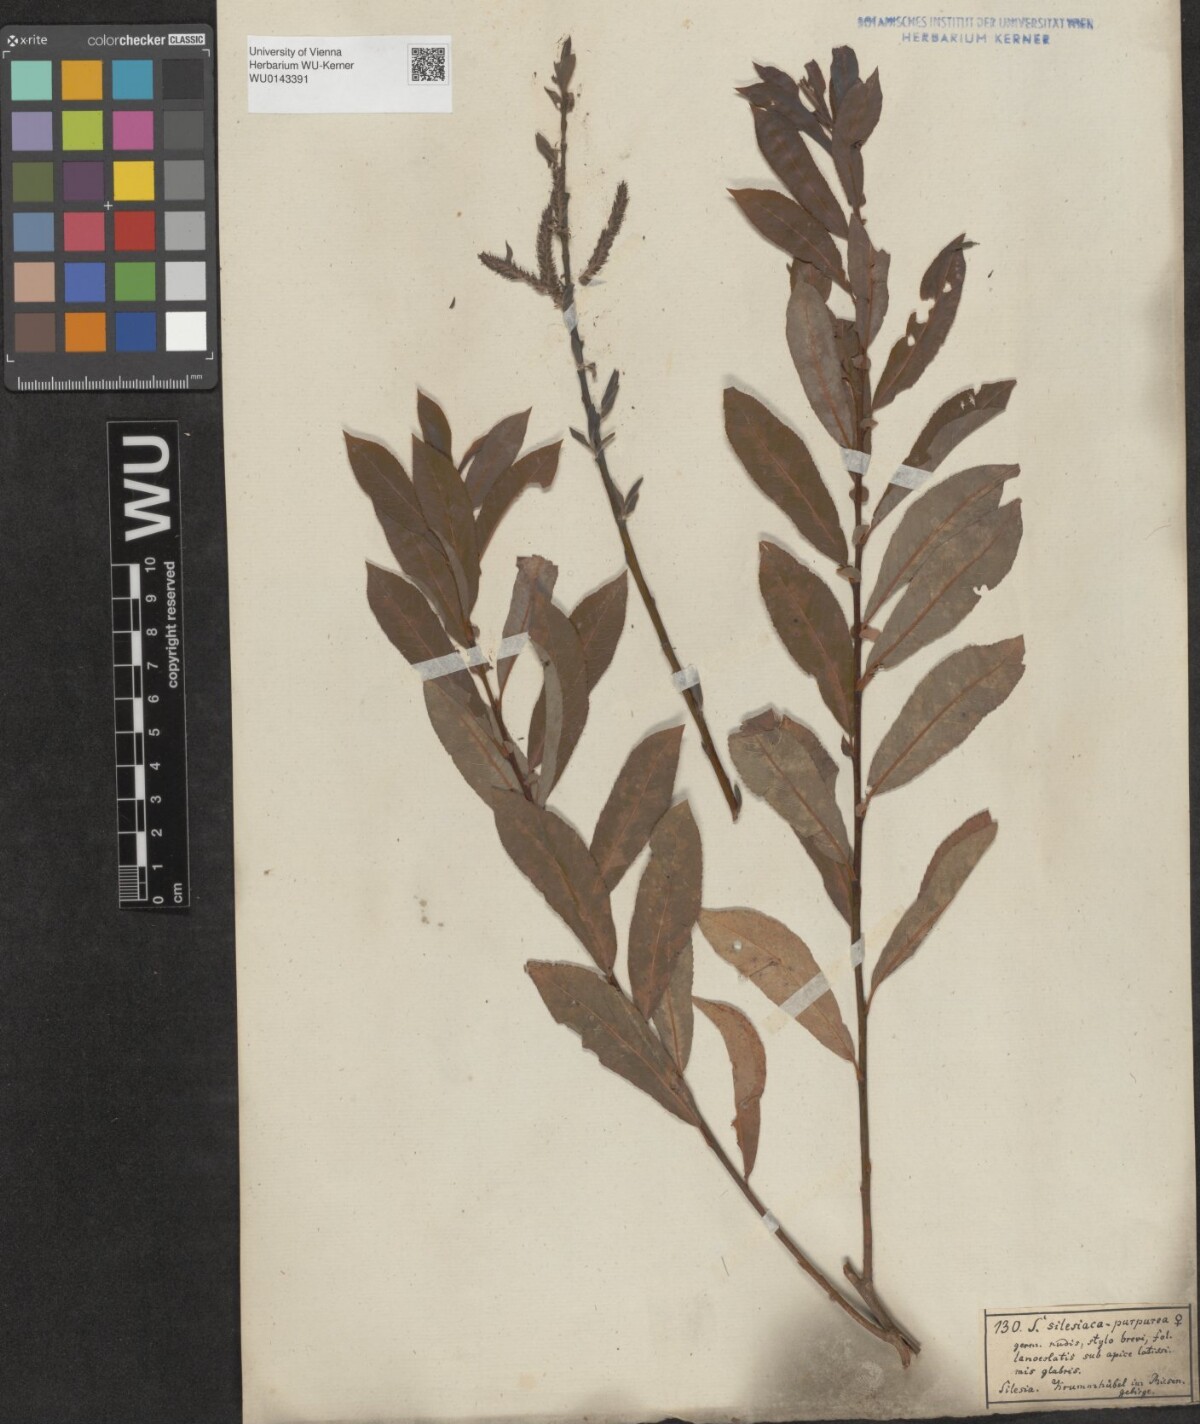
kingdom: Plantae
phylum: Tracheophyta
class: Magnoliopsida
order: Malpighiales
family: Salicaceae
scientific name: Salicaceae
